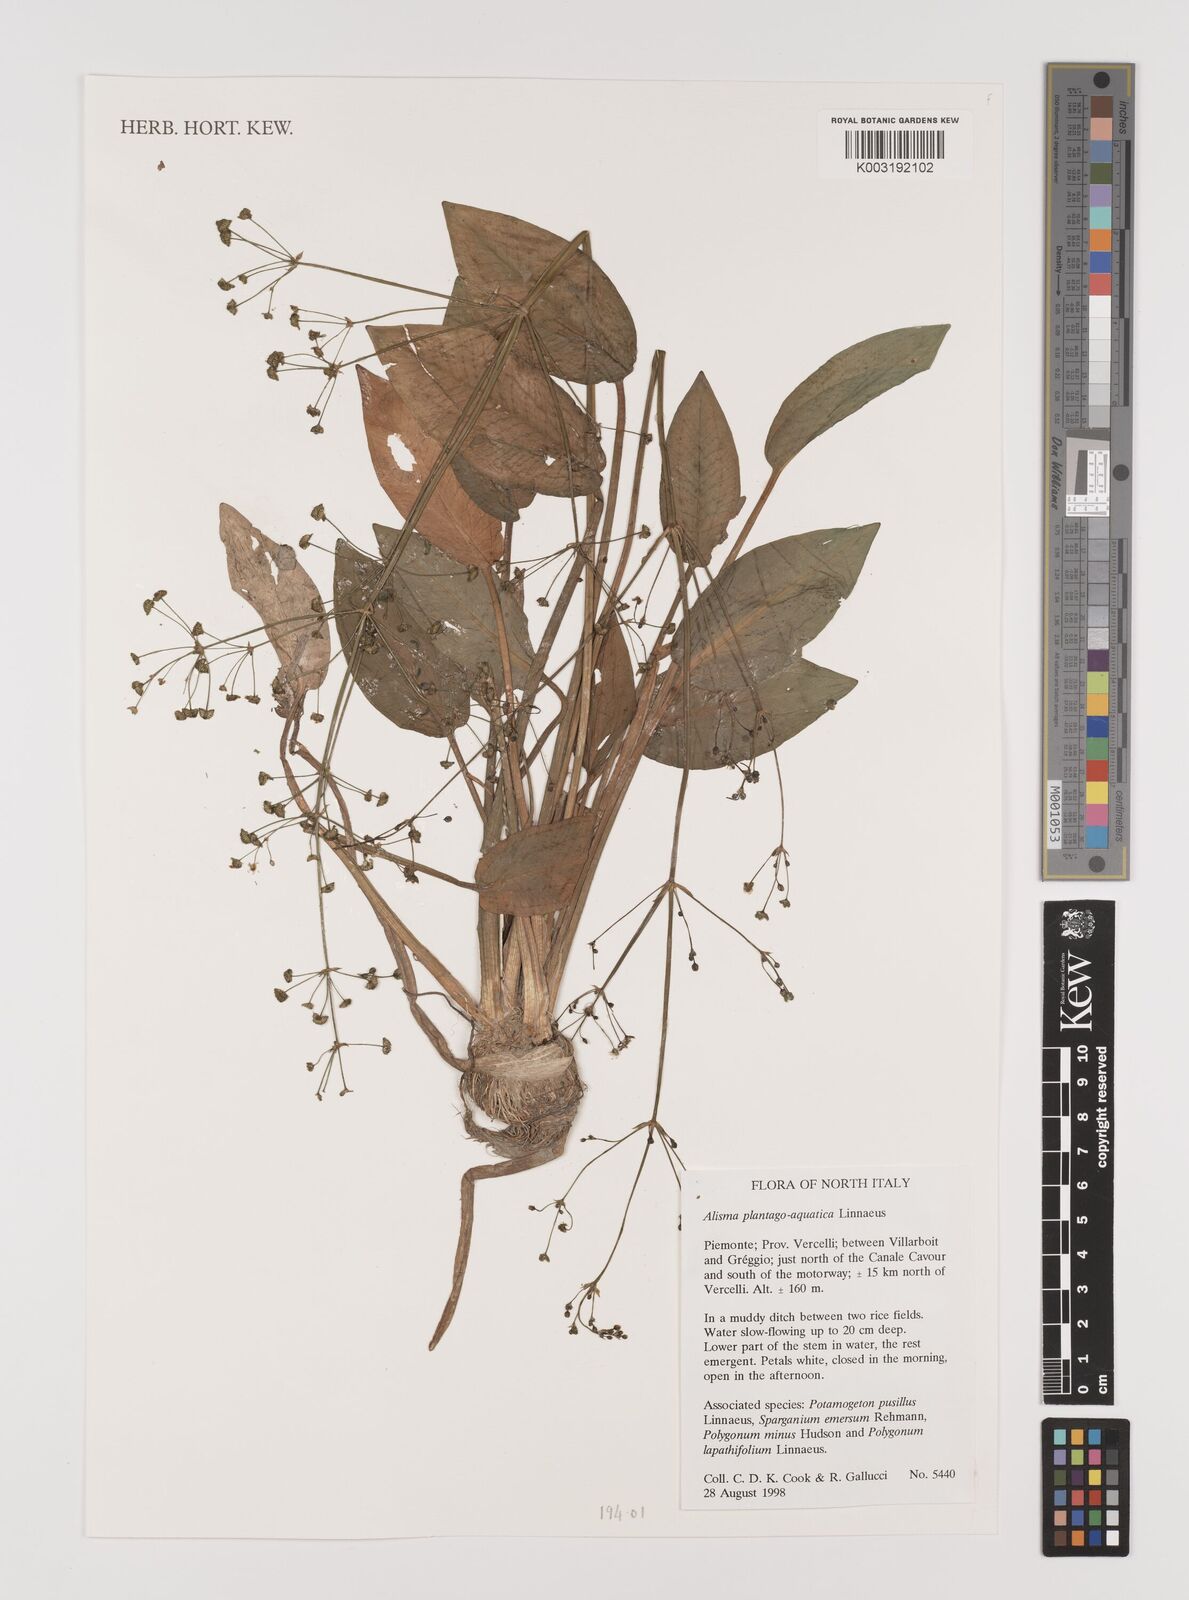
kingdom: Plantae
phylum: Tracheophyta
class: Liliopsida
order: Alismatales
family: Alismataceae
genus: Alisma
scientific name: Alisma plantago-aquatica
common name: Water-plantain
